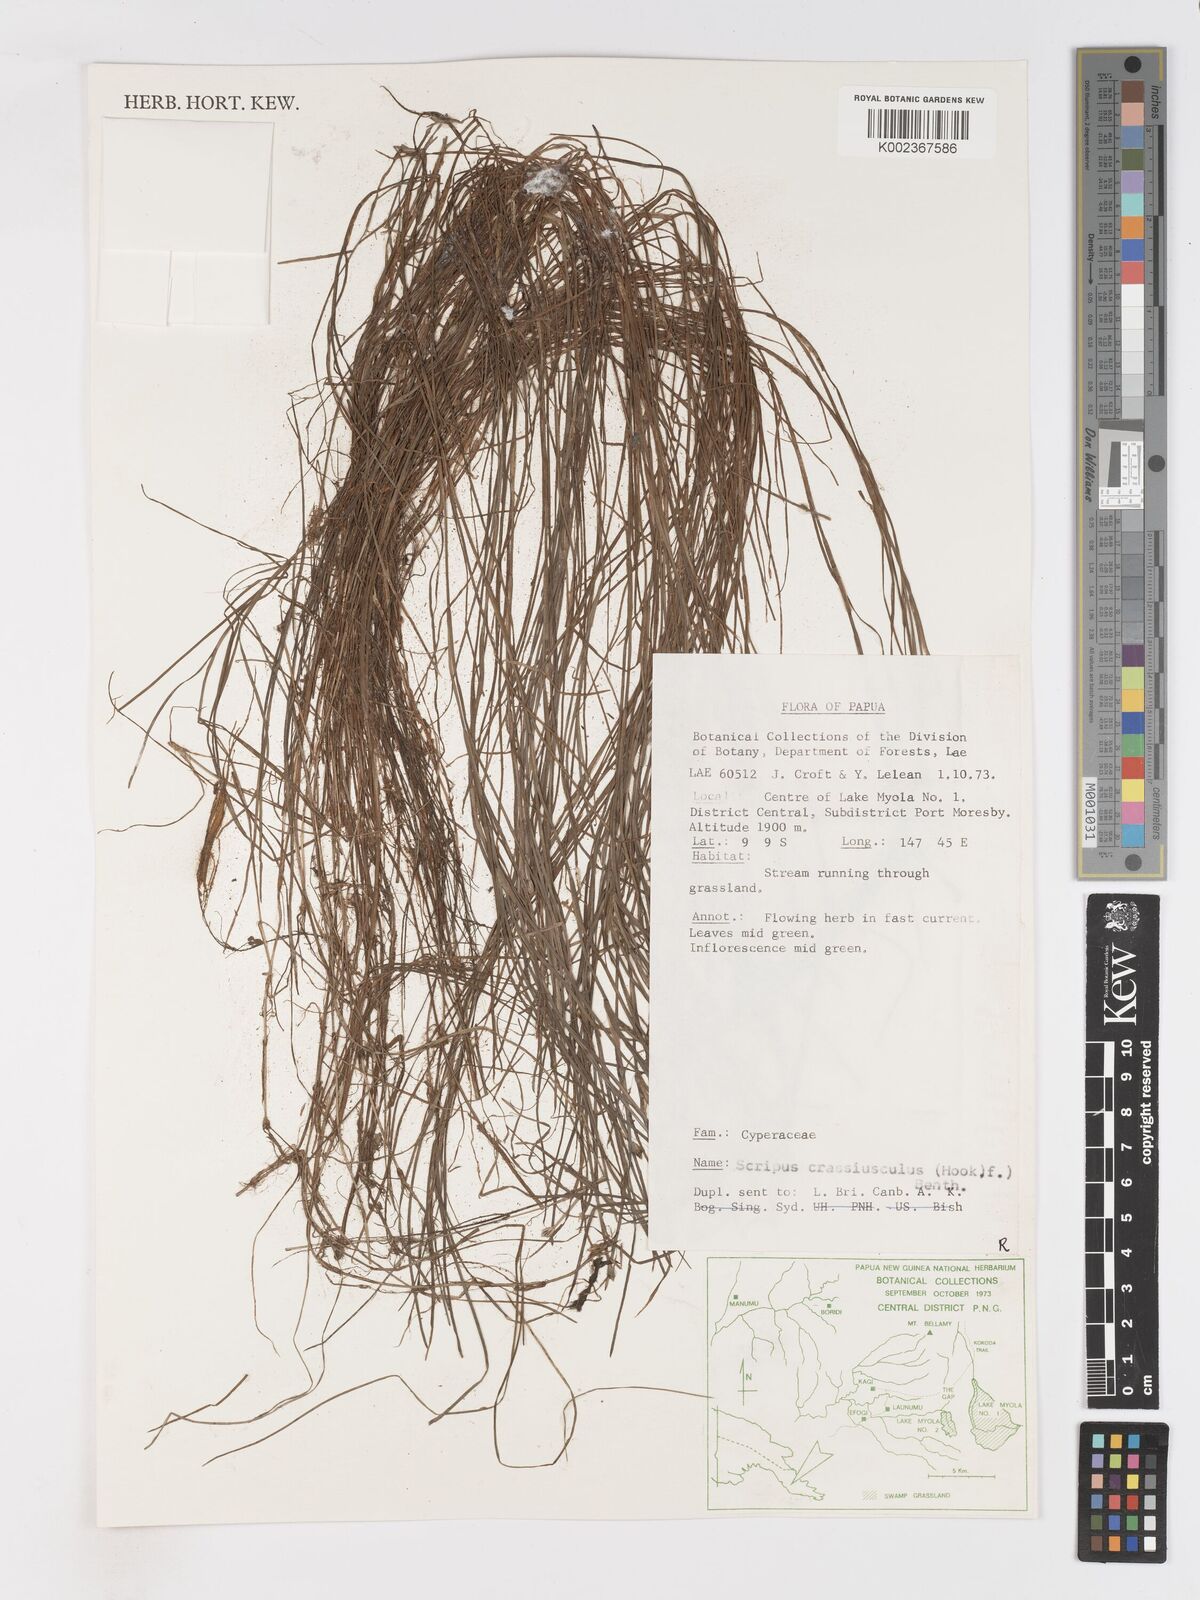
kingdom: Plantae
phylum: Tracheophyta
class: Liliopsida
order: Poales
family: Cyperaceae
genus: Isolepis
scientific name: Isolepis crassiuscula
